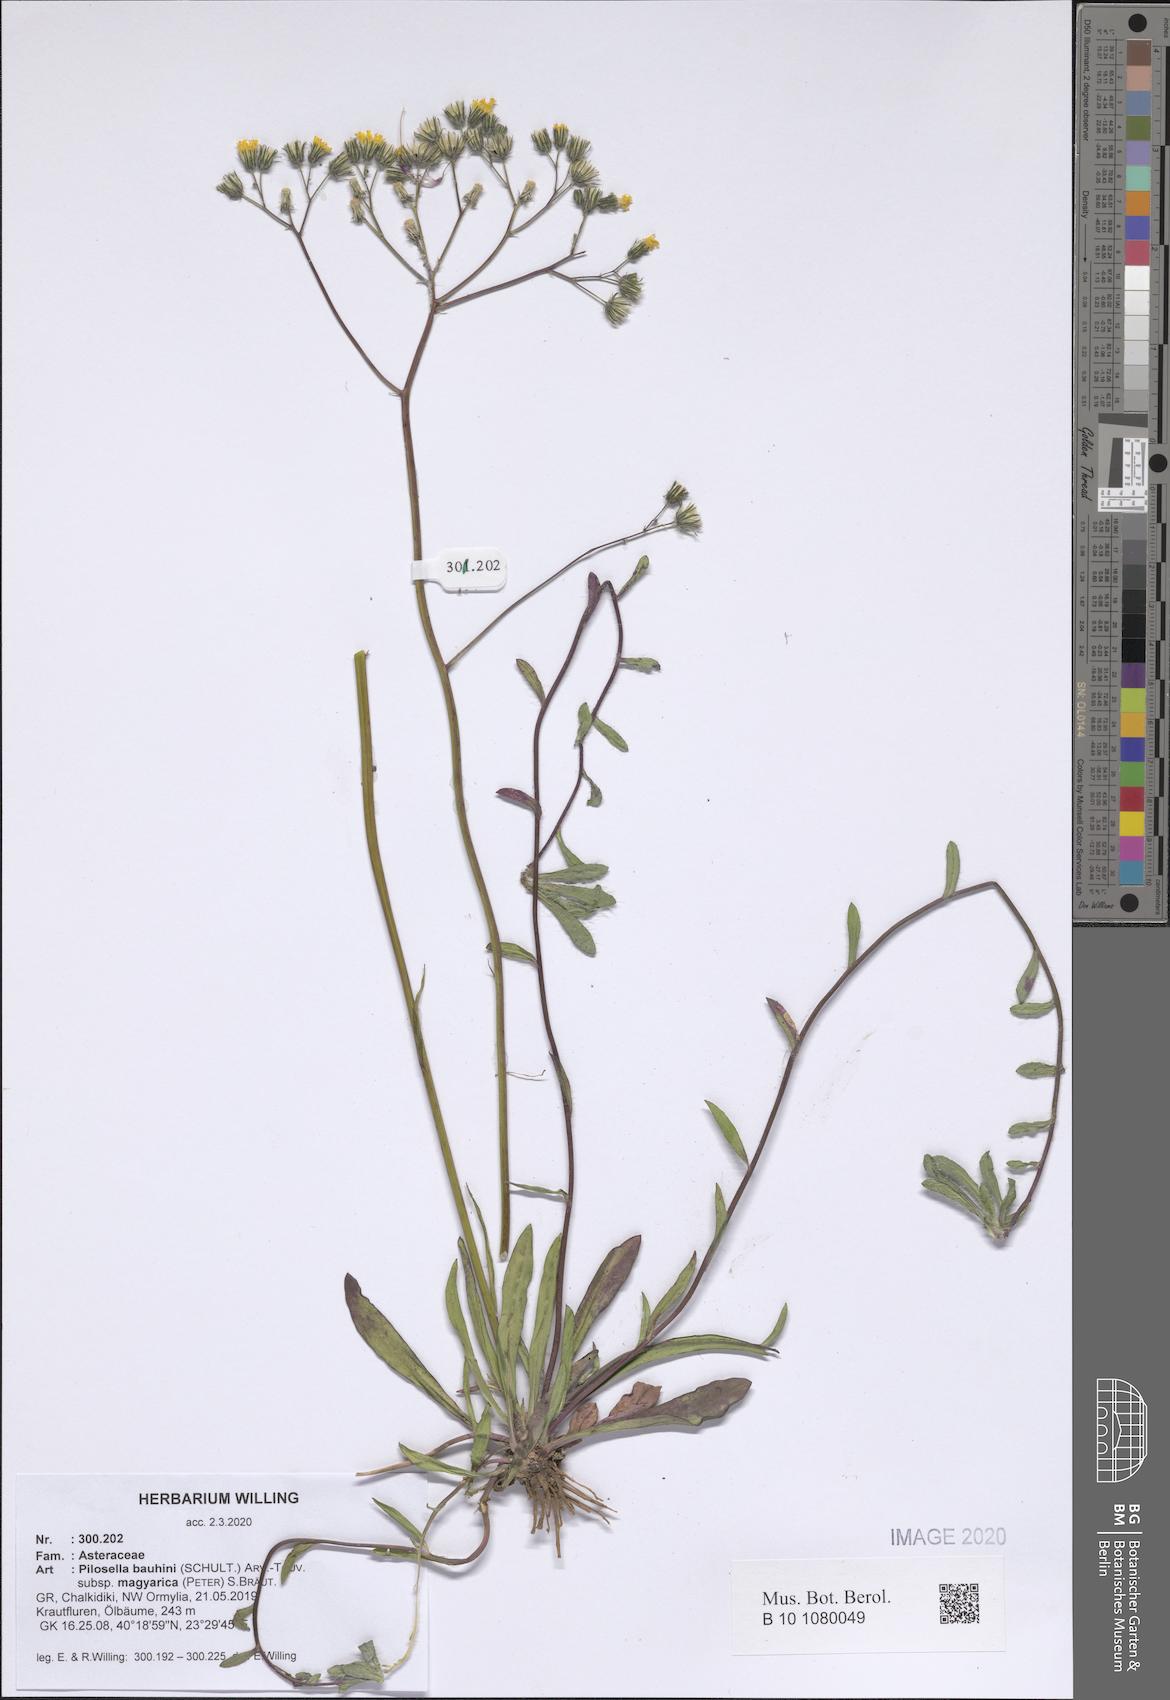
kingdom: Plantae
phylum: Tracheophyta
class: Magnoliopsida
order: Asterales
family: Asteraceae
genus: Pilosella
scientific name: Pilosella bauhini
